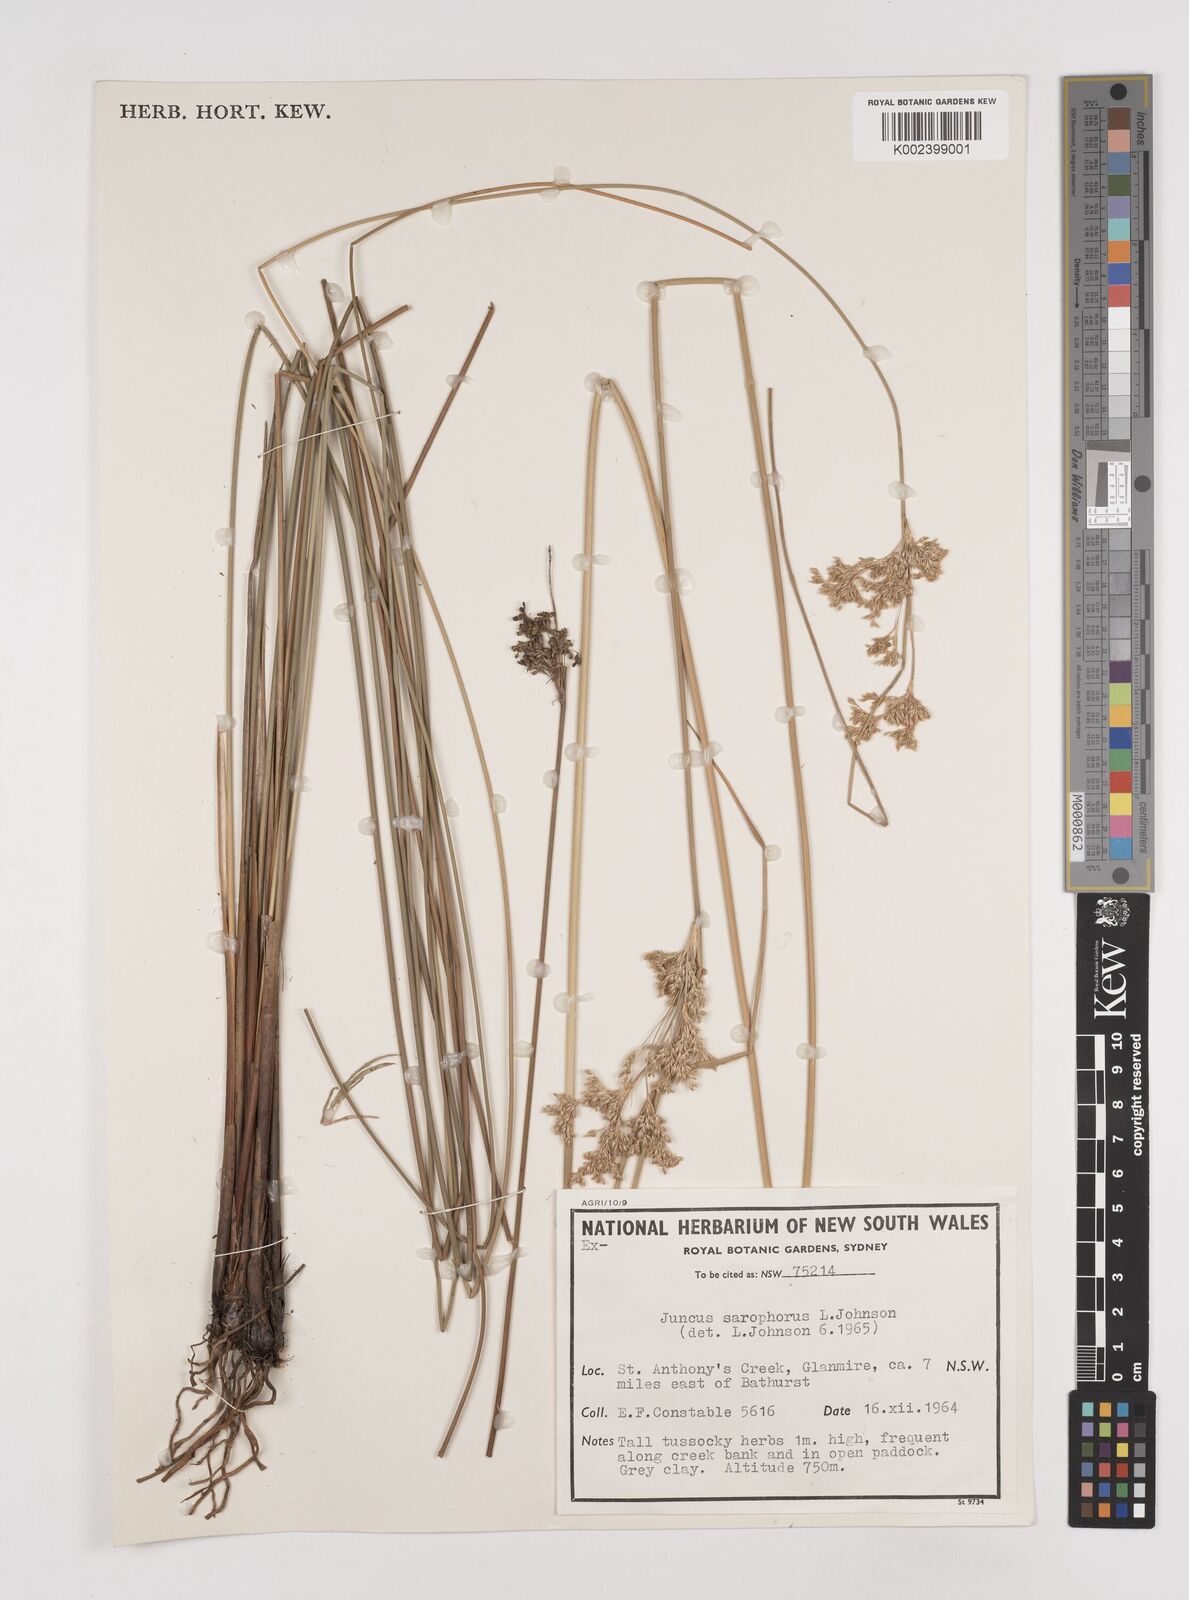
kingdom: Plantae
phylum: Tracheophyta
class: Liliopsida
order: Poales
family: Juncaceae
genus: Juncus
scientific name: Juncus sarophorus
